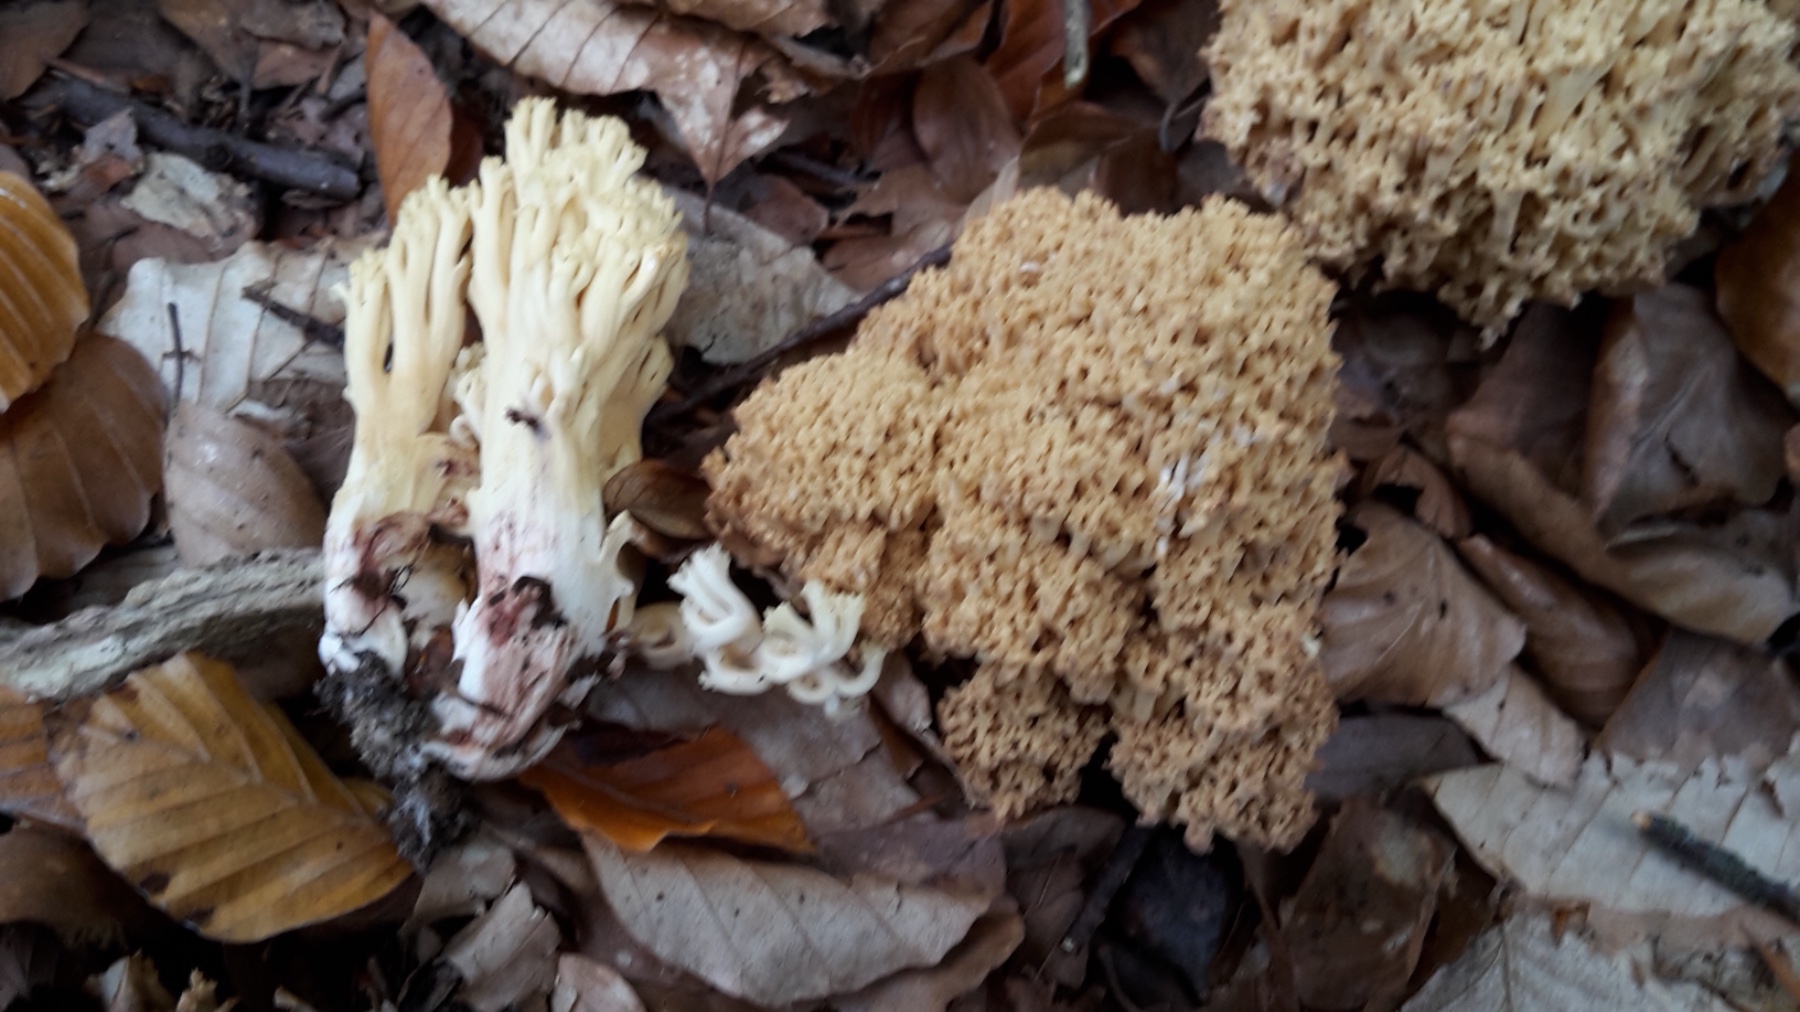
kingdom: Fungi
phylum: Basidiomycota
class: Agaricomycetes
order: Gomphales
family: Gomphaceae
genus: Ramaria
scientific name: Ramaria sanguinea
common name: blodplettet koralsvamp
